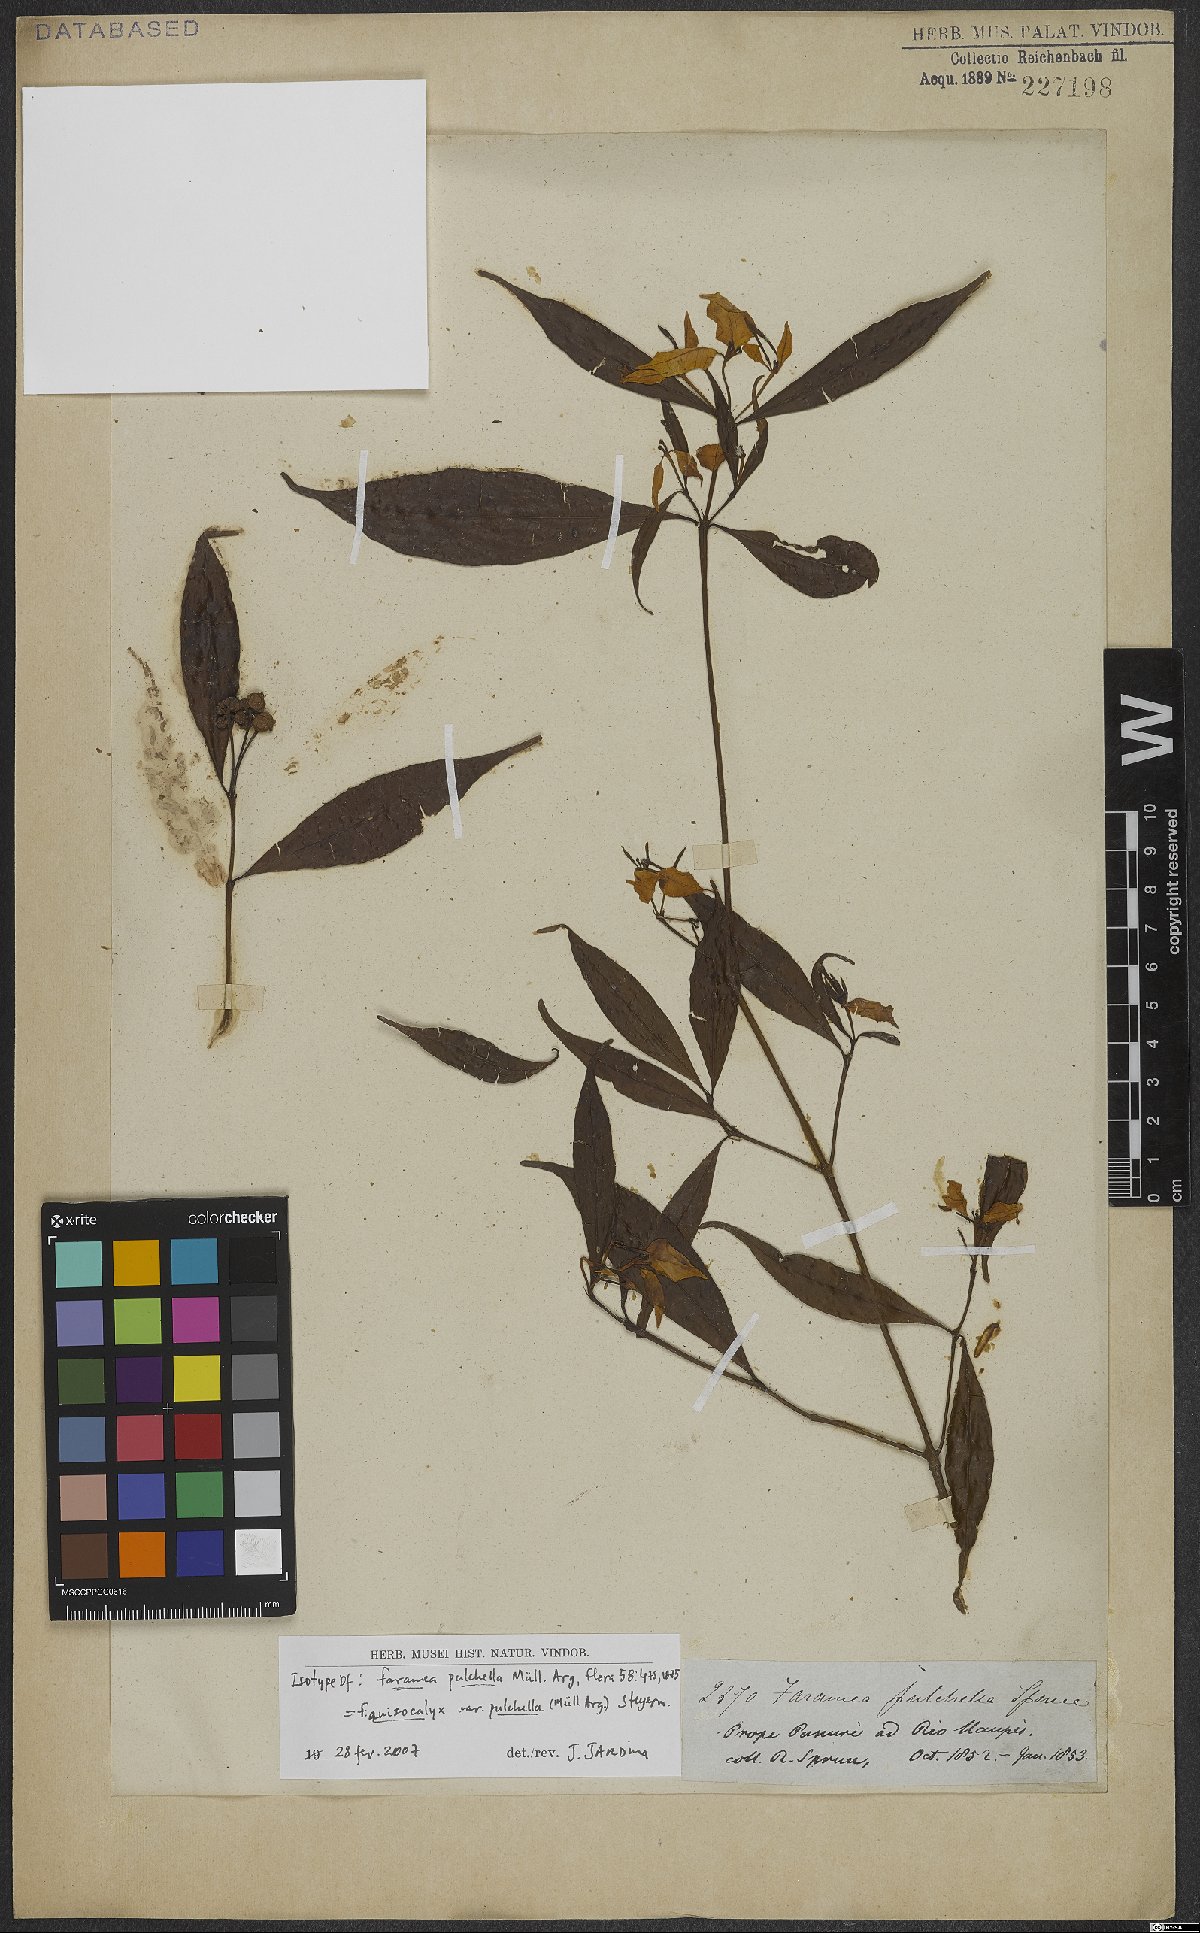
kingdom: Plantae
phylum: Tracheophyta
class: Magnoliopsida
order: Gentianales
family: Rubiaceae
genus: Faramea
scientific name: Faramea anisocalyx
